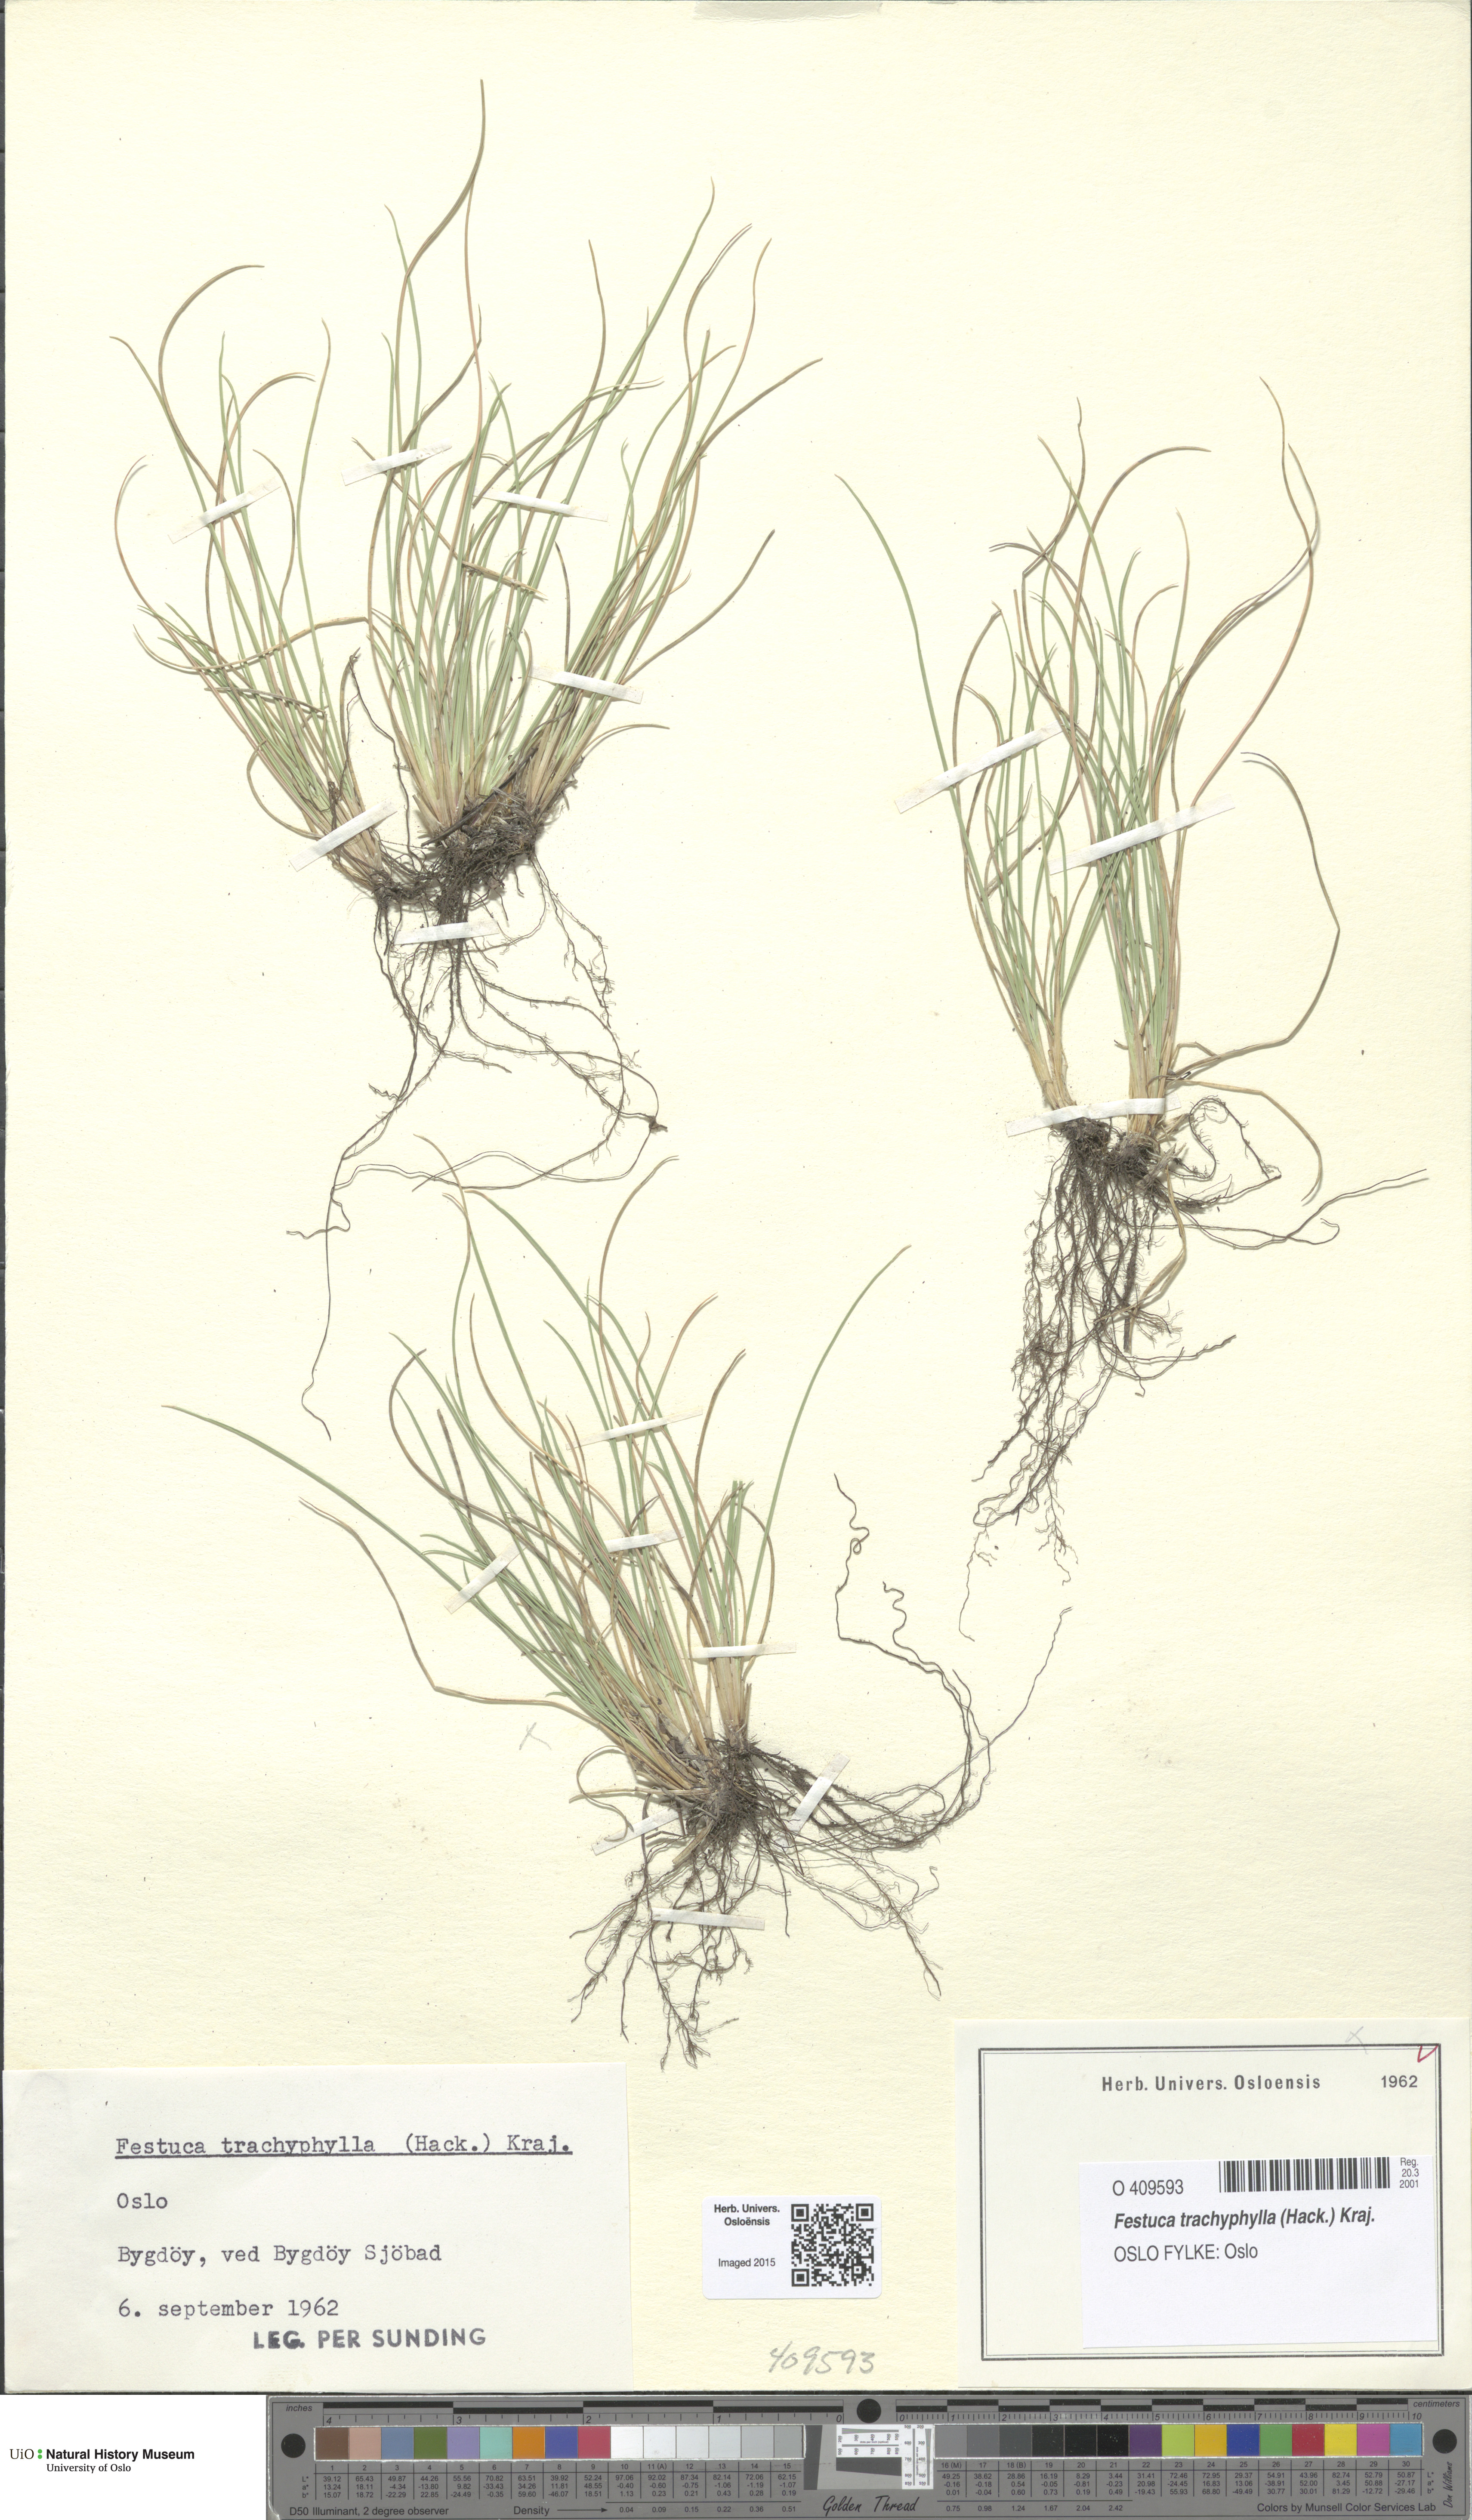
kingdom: Plantae
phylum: Tracheophyta
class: Liliopsida
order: Poales
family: Poaceae
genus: Festuca
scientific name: Festuca trachyphylla
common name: Hard fescue
